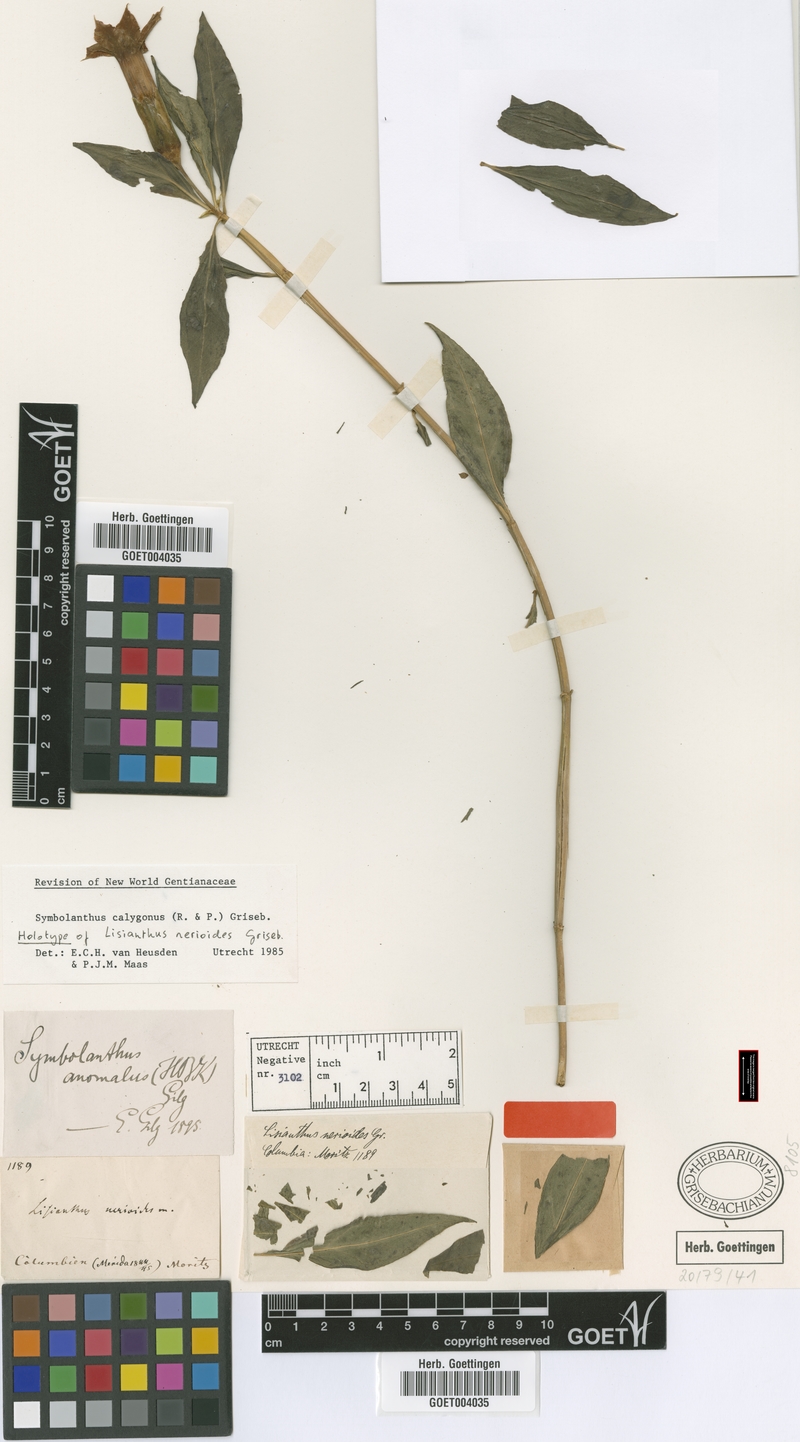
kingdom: Plantae
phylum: Tracheophyta
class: Magnoliopsida
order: Gentianales
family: Gentianaceae
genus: Symbolanthus
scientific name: Symbolanthus calygonus
